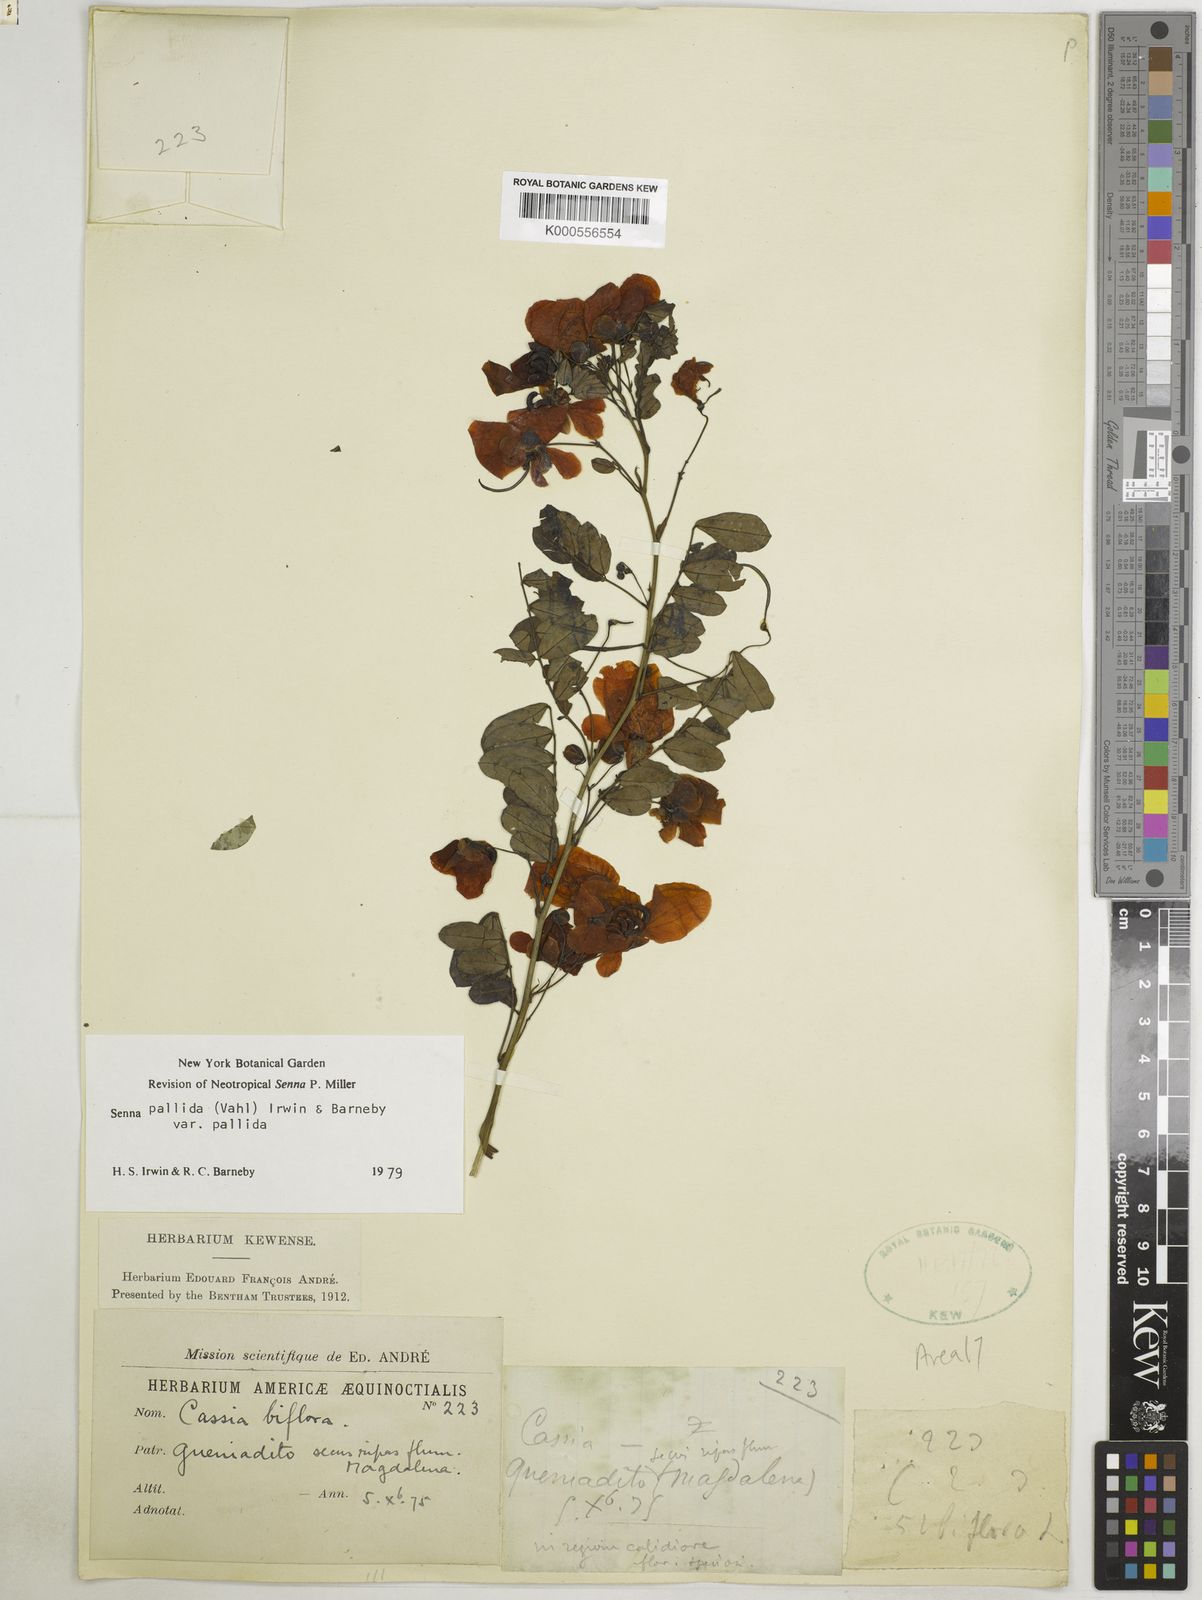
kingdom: Plantae
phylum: Tracheophyta
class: Magnoliopsida
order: Fabales
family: Fabaceae
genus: Senna
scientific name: Senna pallida
